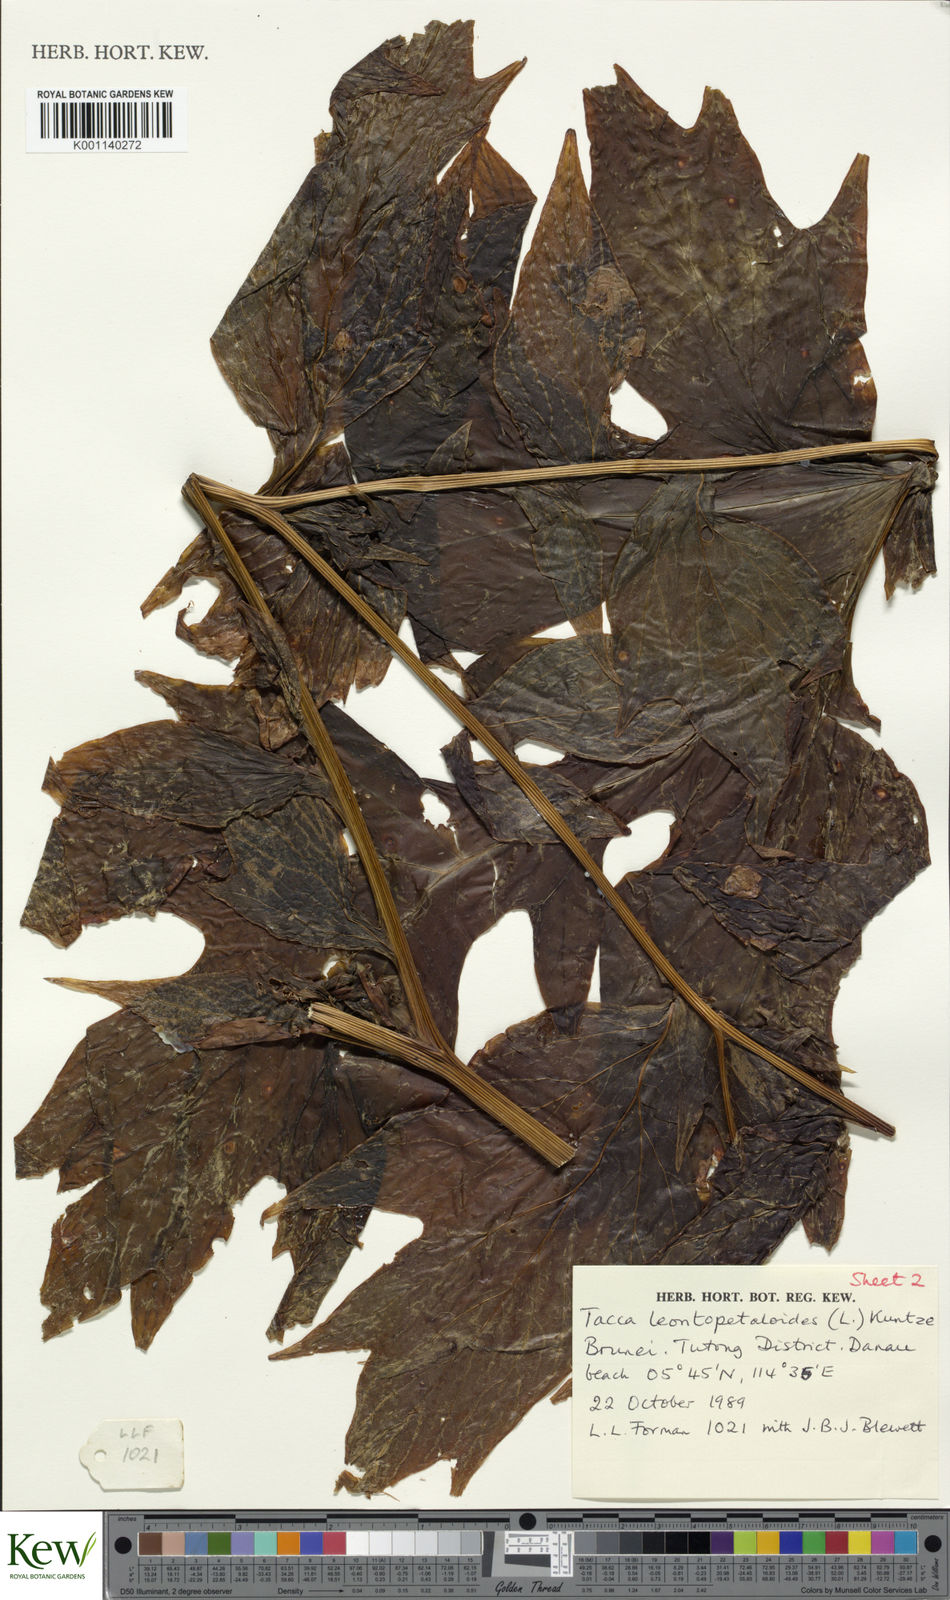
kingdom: Plantae
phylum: Tracheophyta
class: Liliopsida
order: Dioscoreales
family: Dioscoreaceae
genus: Tacca
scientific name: Tacca leontopetaloides
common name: Arrowroot
